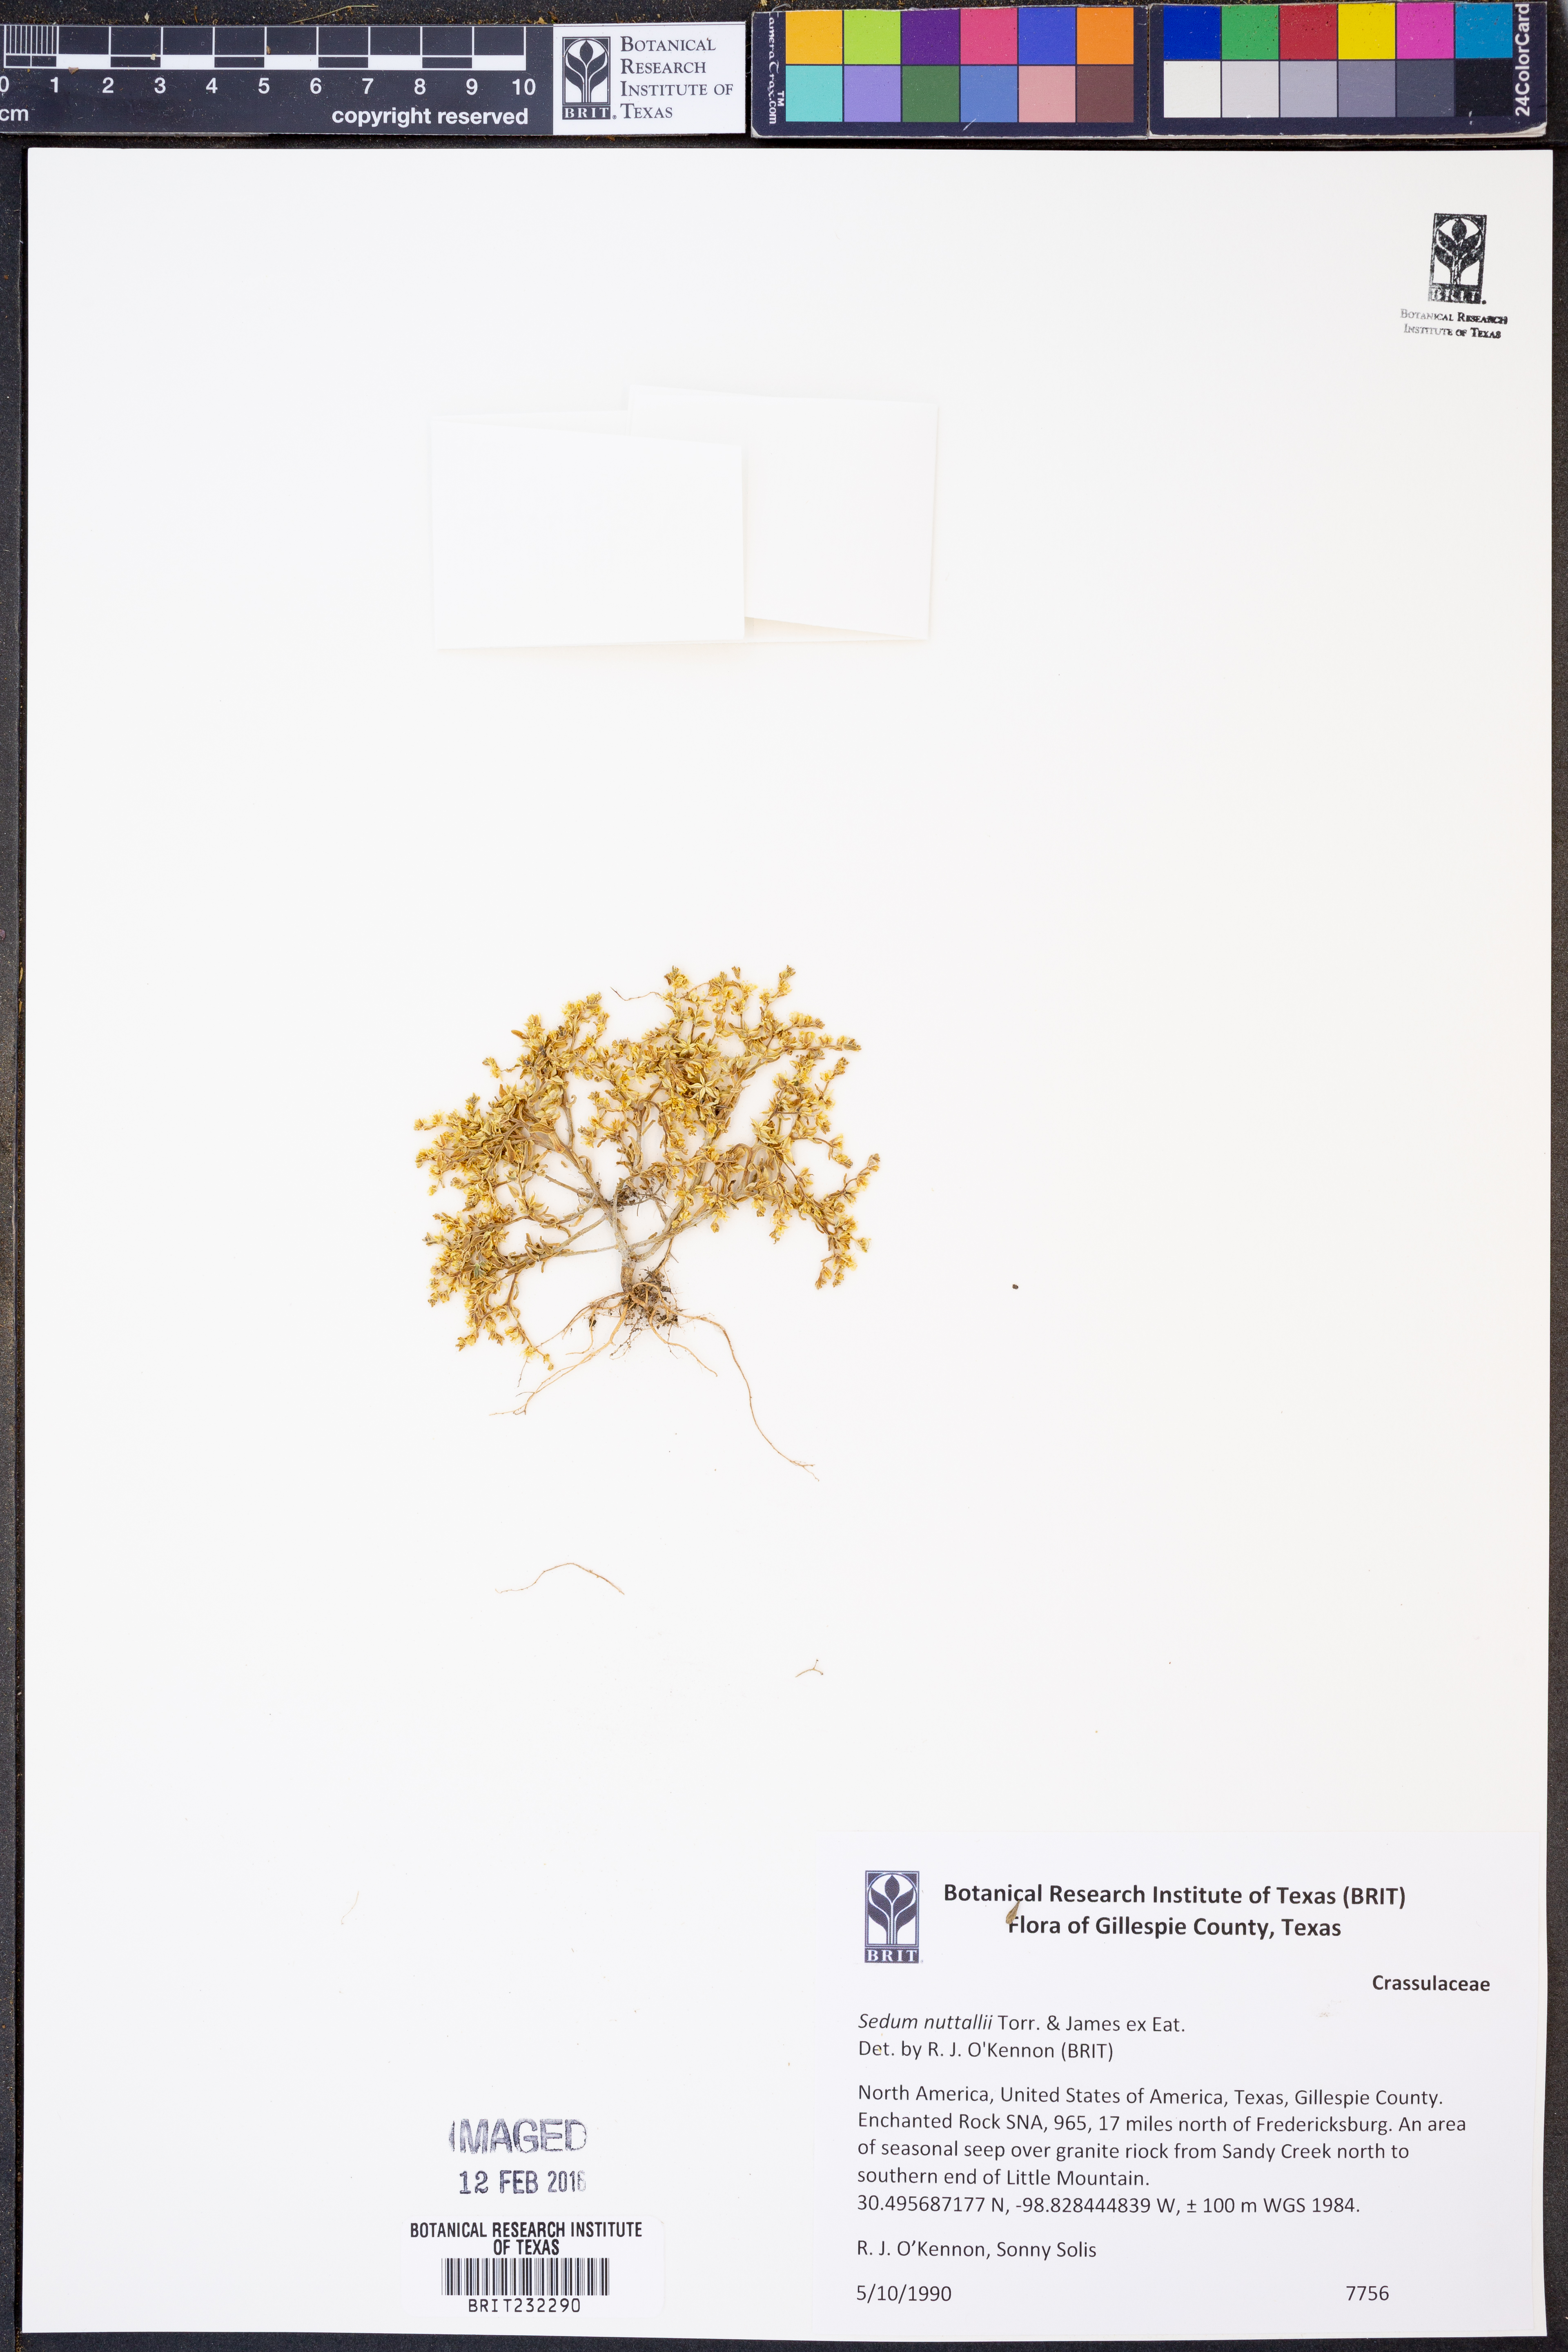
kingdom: Plantae
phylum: Tracheophyta
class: Magnoliopsida
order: Saxifragales
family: Crassulaceae
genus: Sedum
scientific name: Sedum nuttallii
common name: Yellow stonecrop
